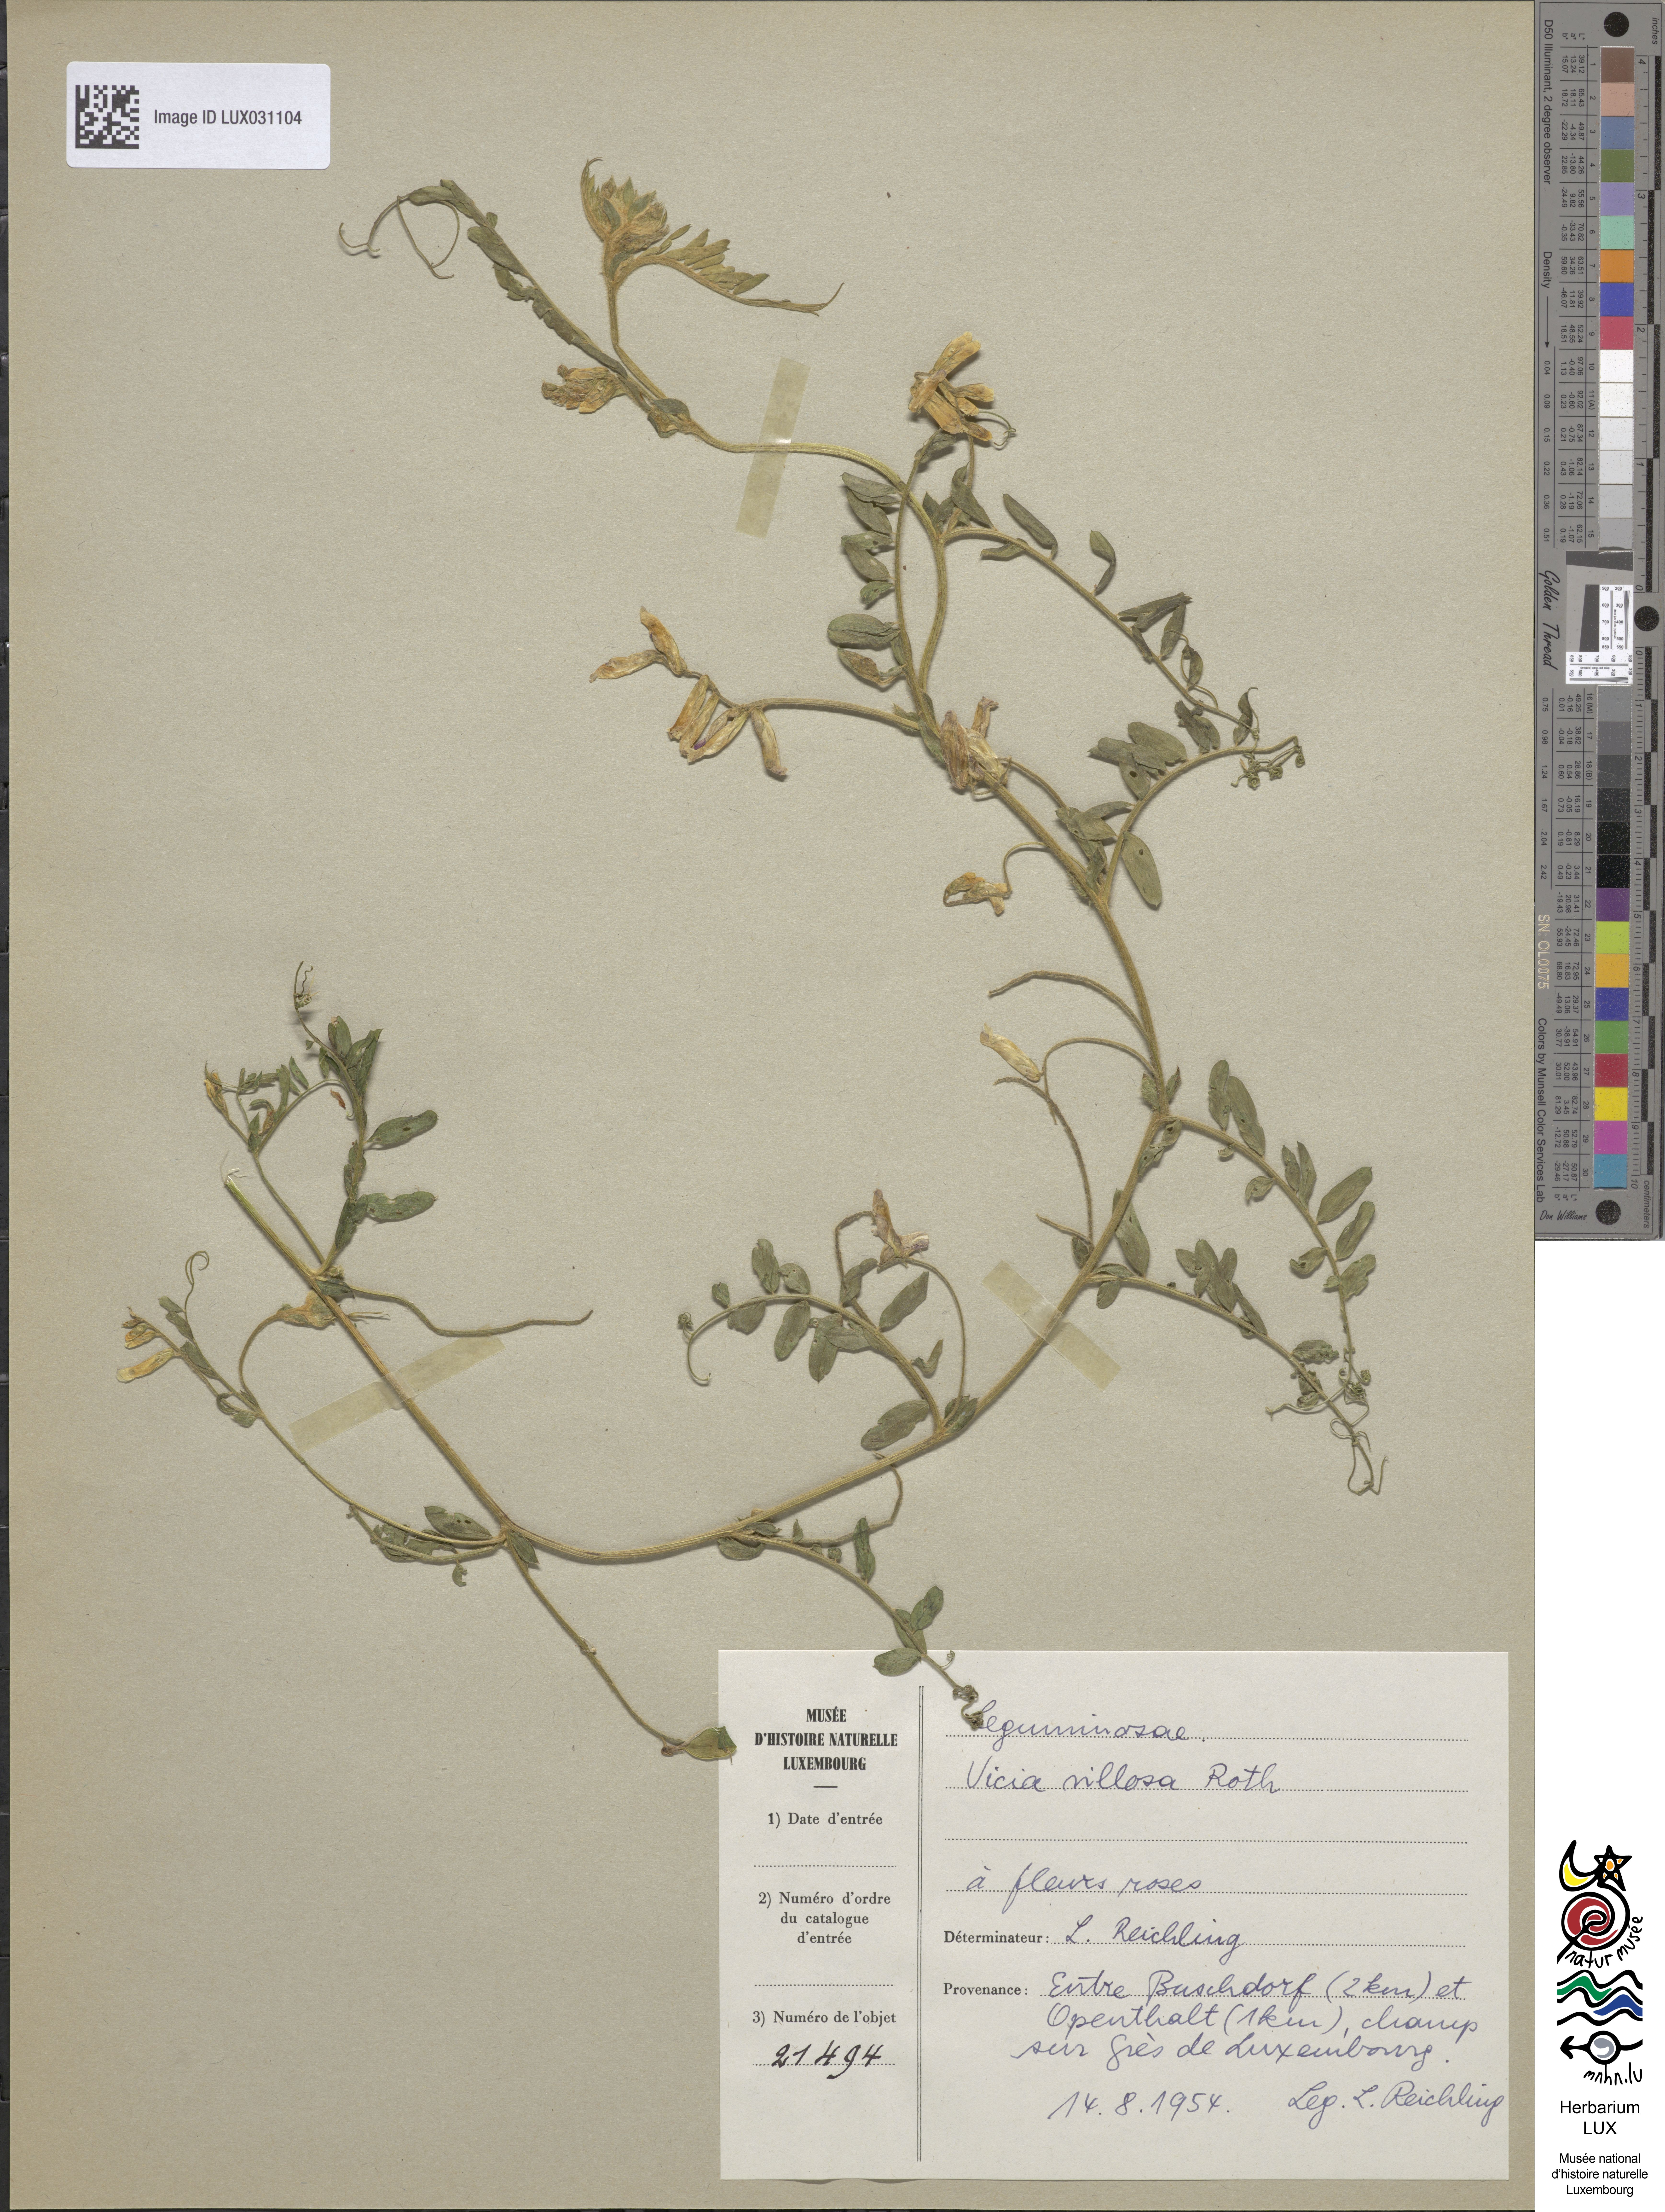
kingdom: Plantae
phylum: Tracheophyta
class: Magnoliopsida
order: Fabales
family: Fabaceae
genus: Vicia
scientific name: Vicia villosa
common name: Fodder vetch
